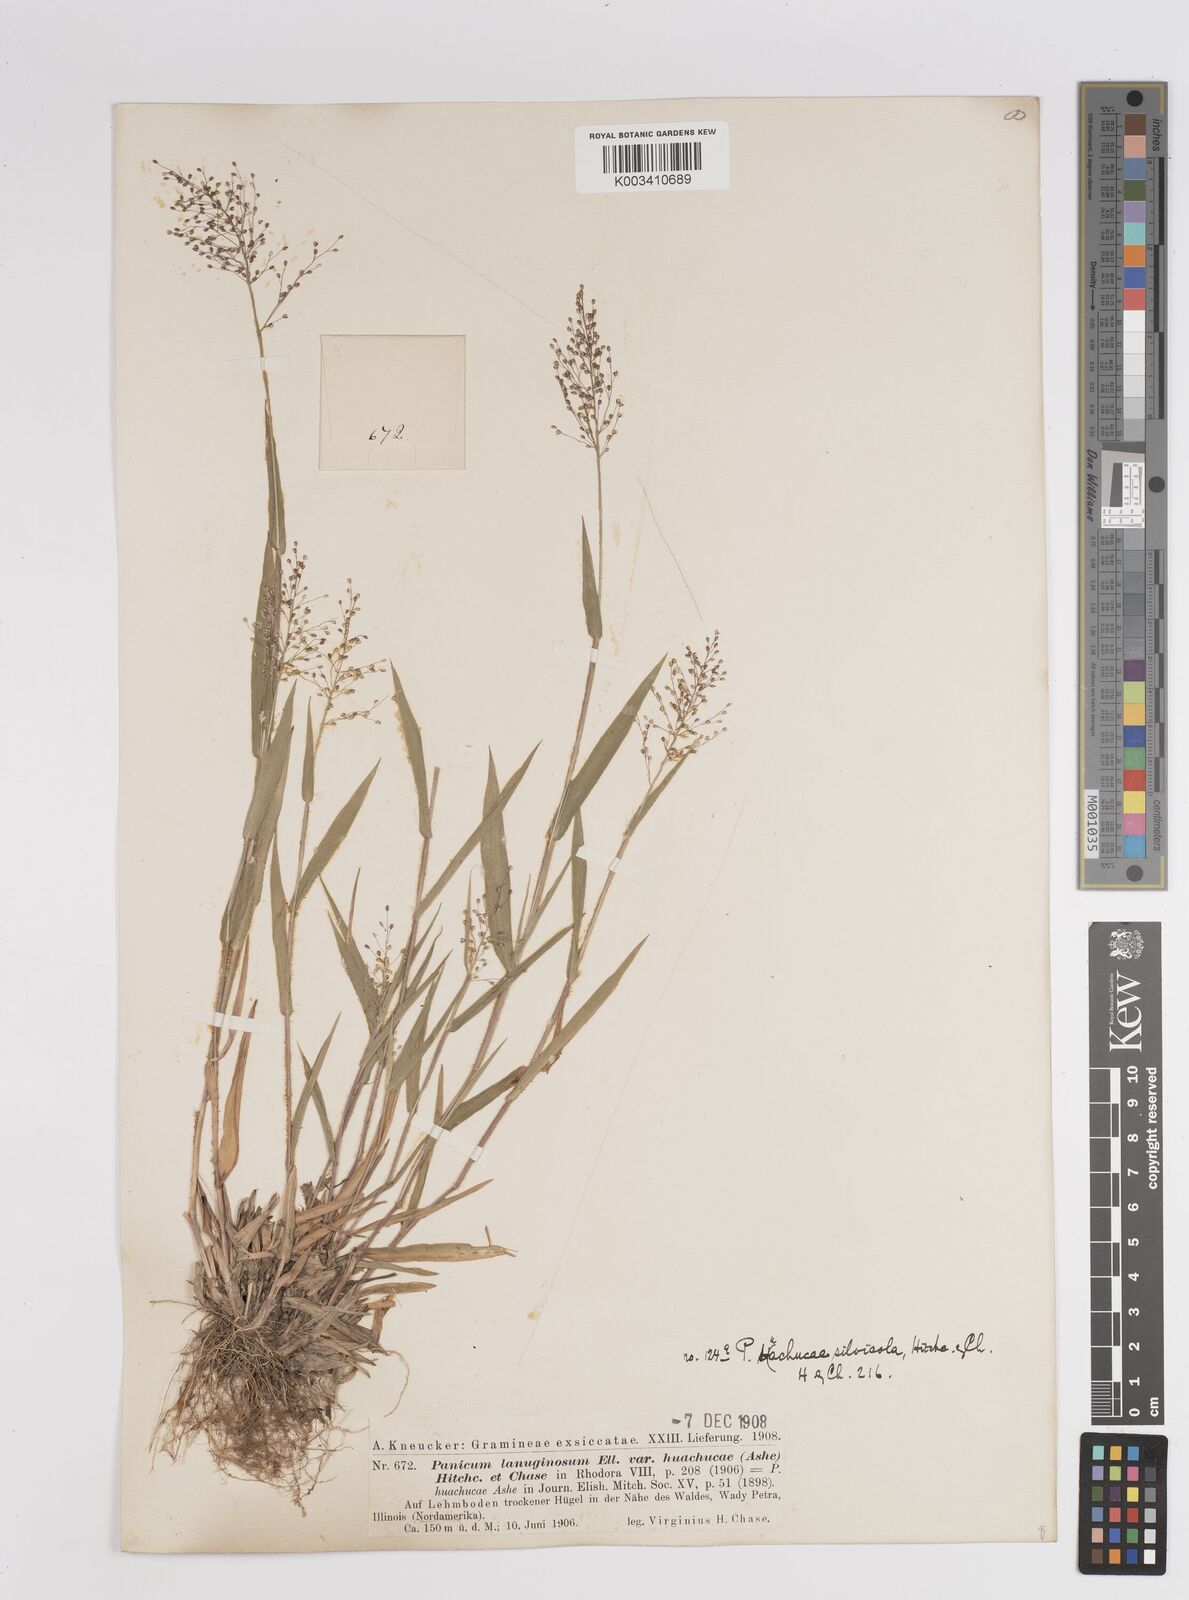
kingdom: Plantae
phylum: Tracheophyta
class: Liliopsida
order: Poales
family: Poaceae
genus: Dichanthelium
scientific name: Dichanthelium lanuginosum
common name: Woolly panicgrass
